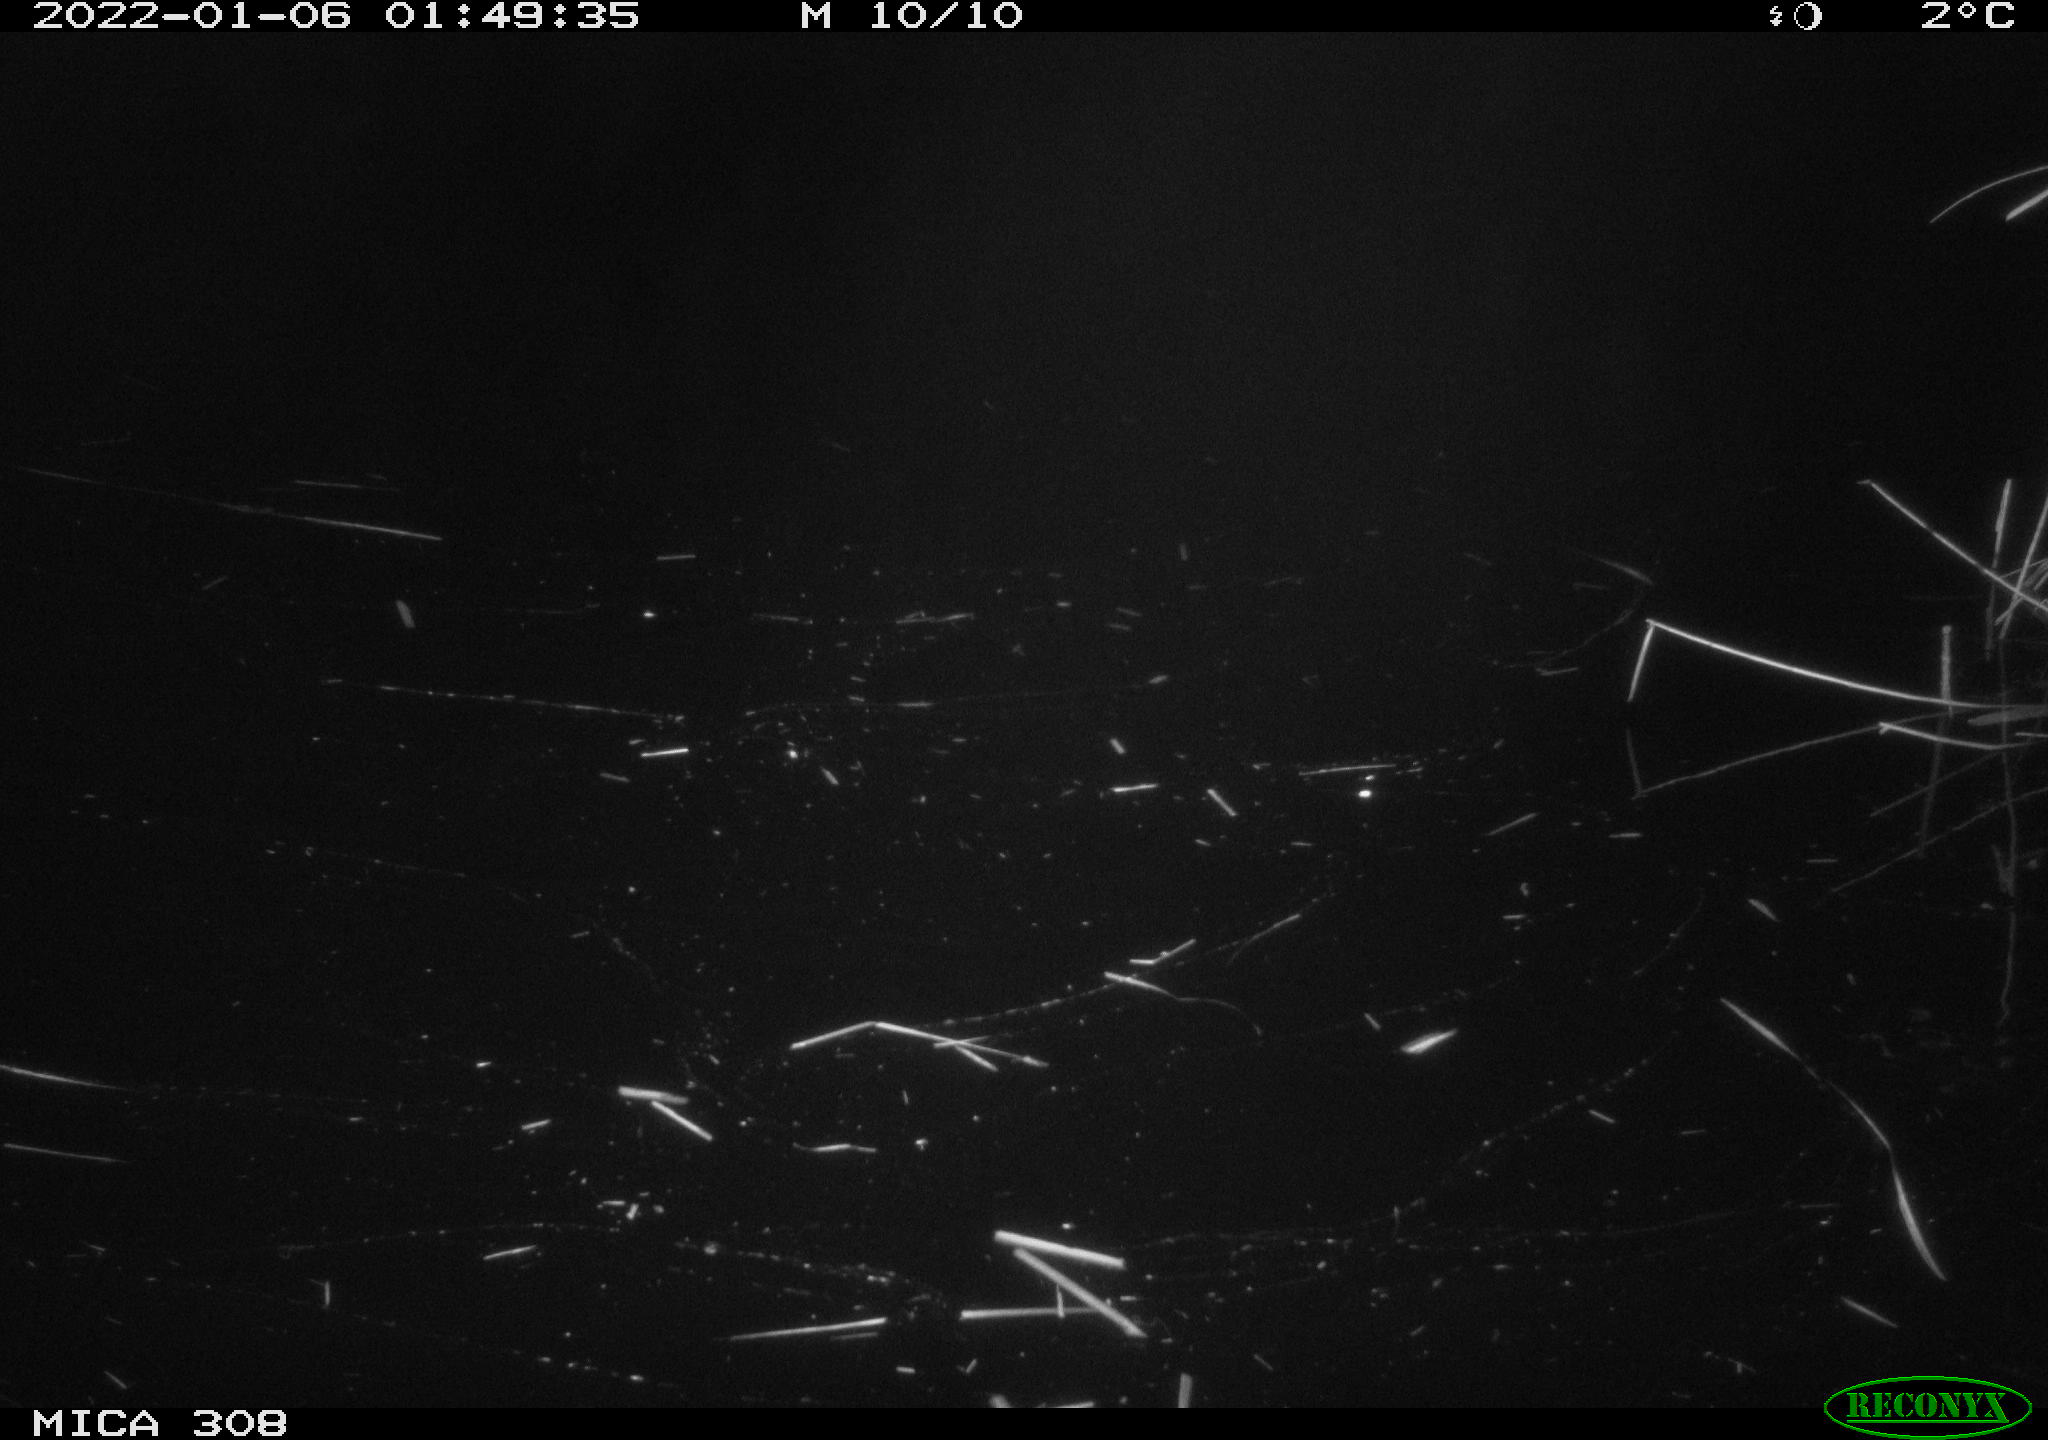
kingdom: Animalia
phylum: Chordata
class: Mammalia
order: Rodentia
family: Muridae
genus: Rattus
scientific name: Rattus norvegicus
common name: Brown rat
